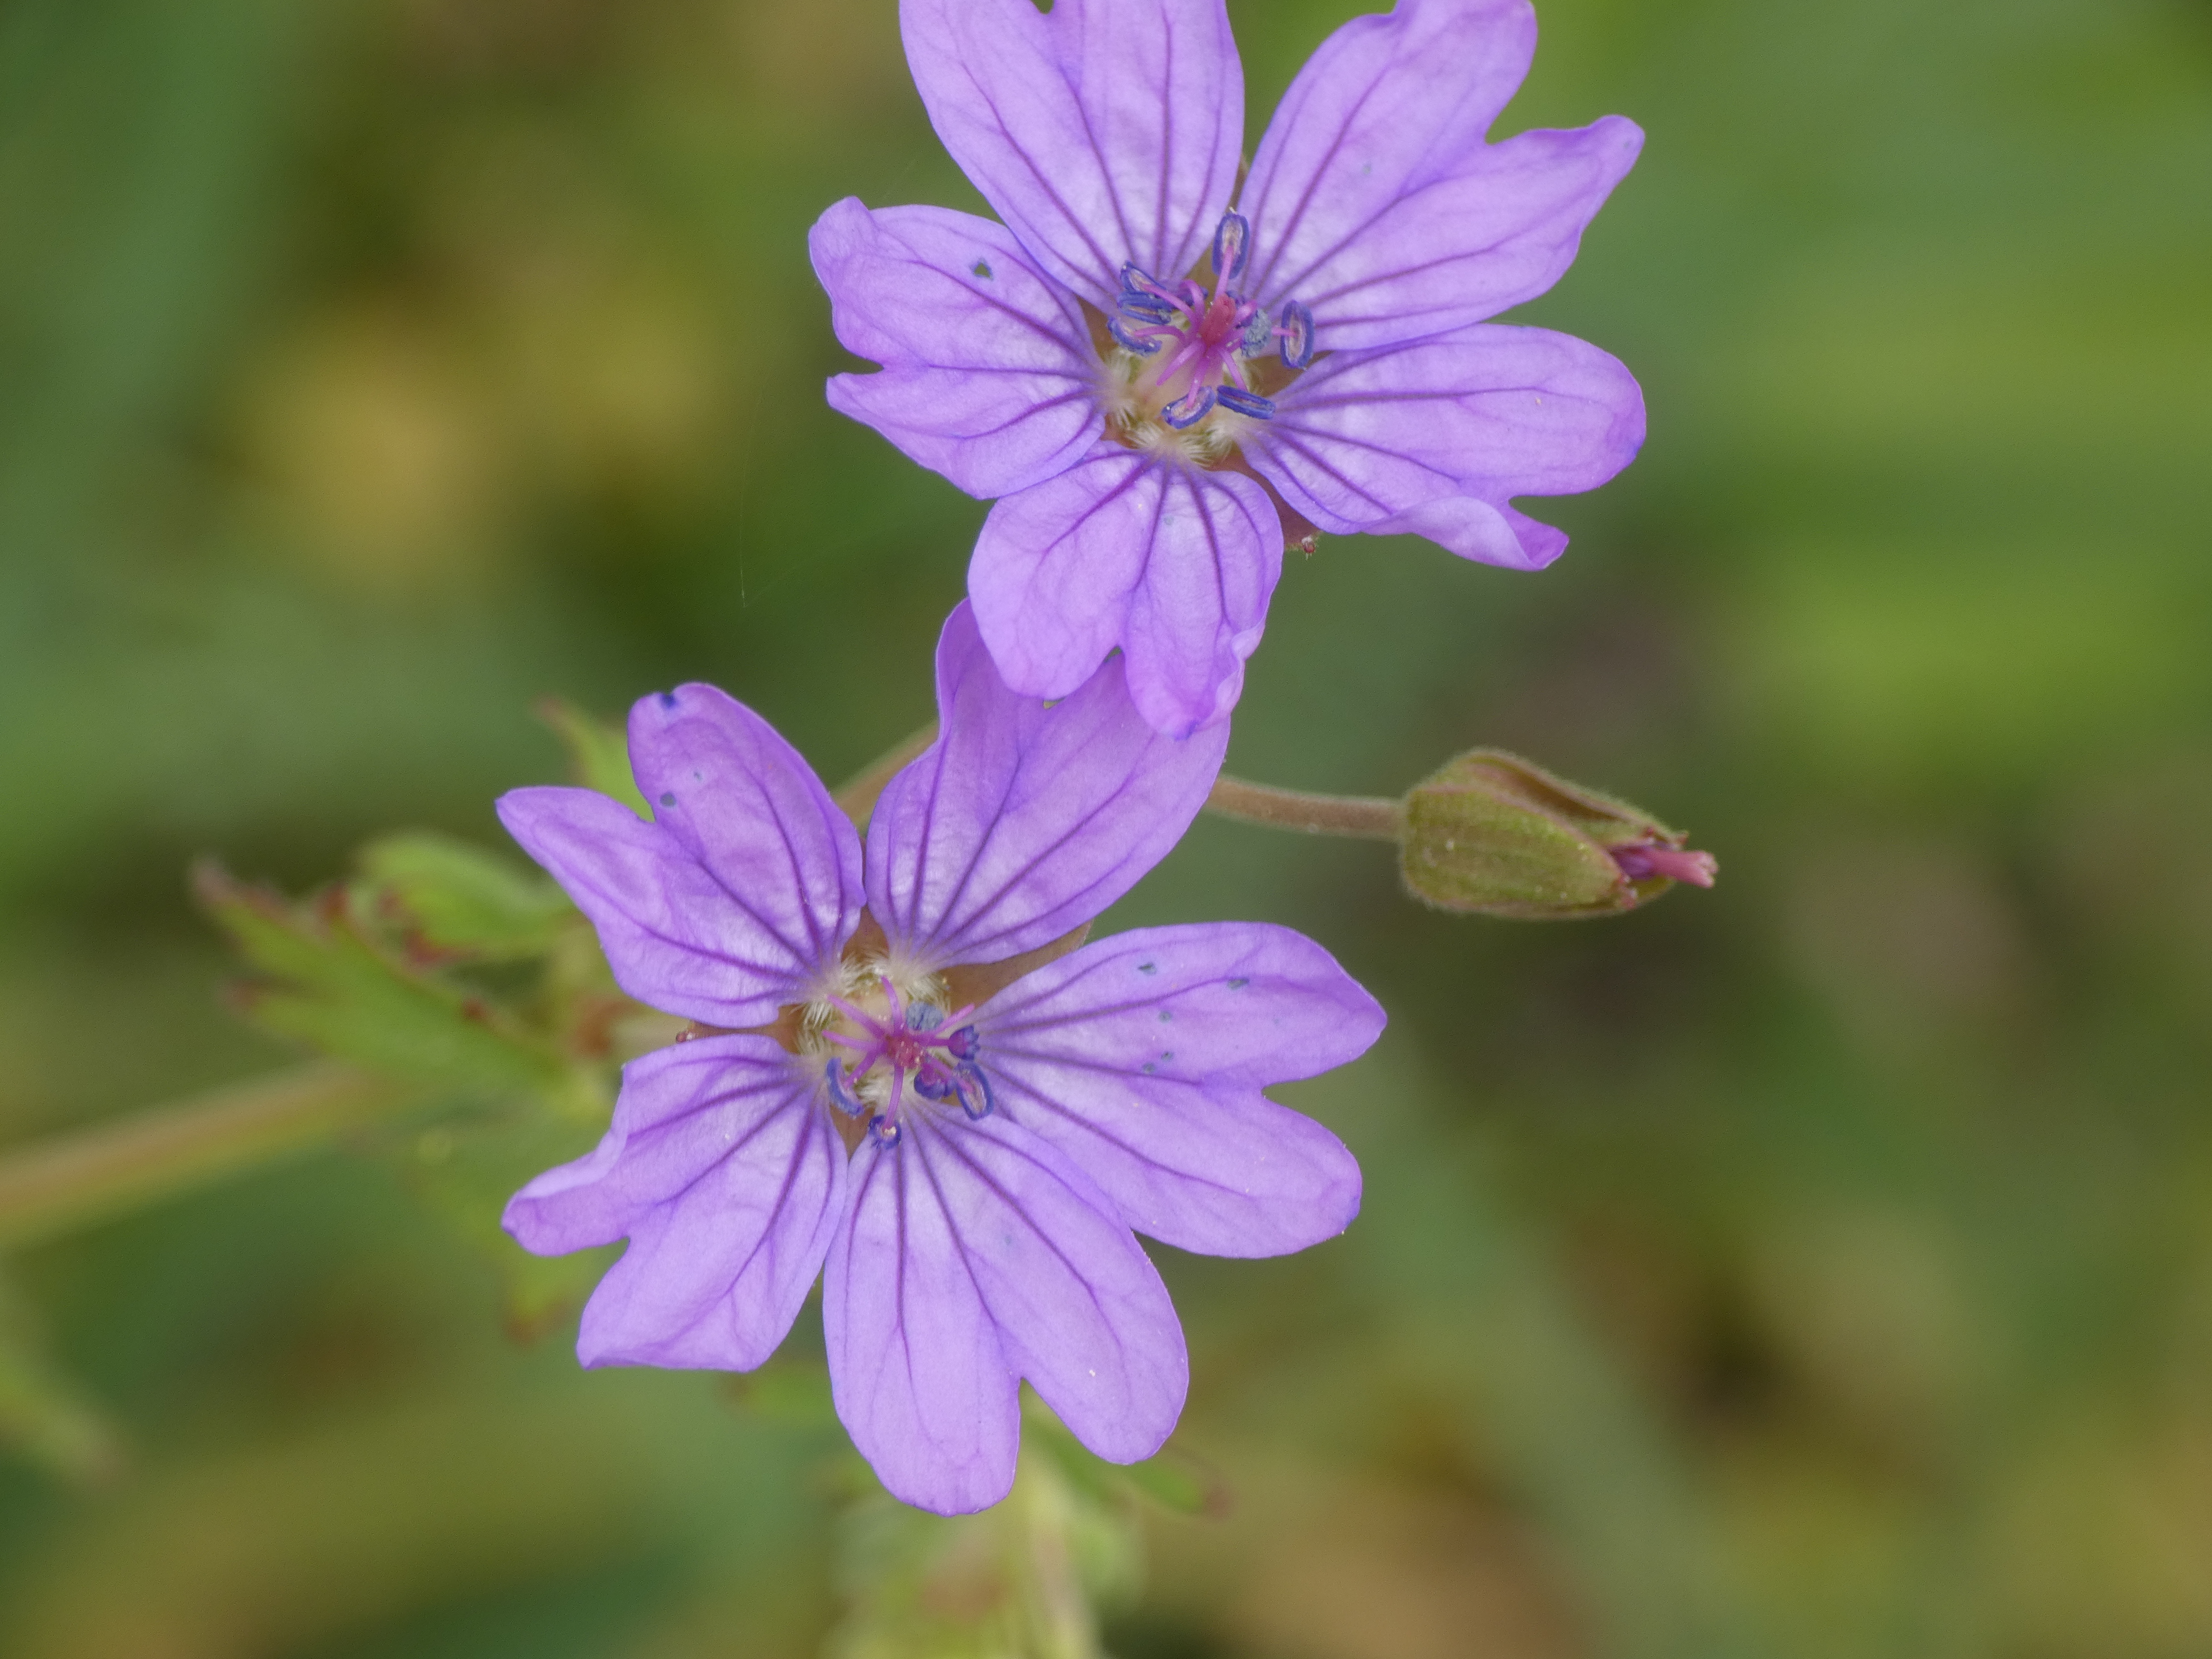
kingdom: Plantae
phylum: Tracheophyta
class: Magnoliopsida
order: Geraniales
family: Geraniaceae
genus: Geranium
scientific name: Geranium pyrenaicum
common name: Pyrenæisk storkenæb
